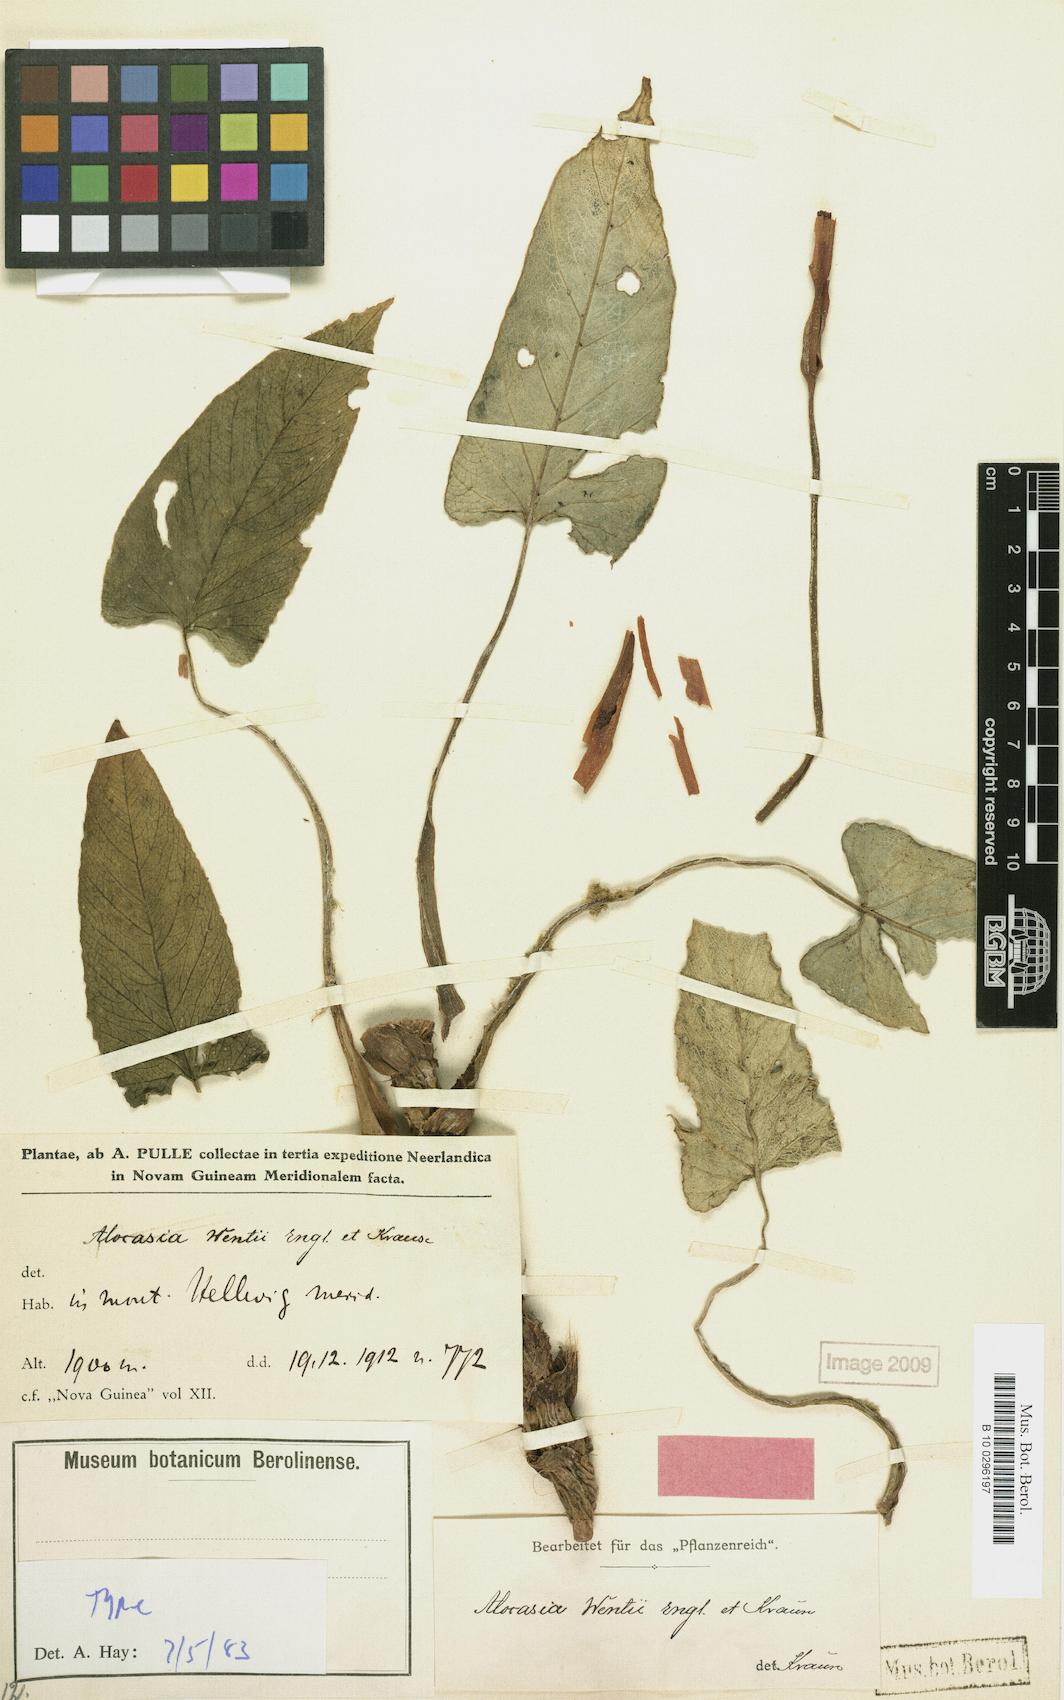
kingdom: Plantae
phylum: Tracheophyta
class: Liliopsida
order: Alismatales
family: Araceae
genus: Alocasia
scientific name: Alocasia wentii
